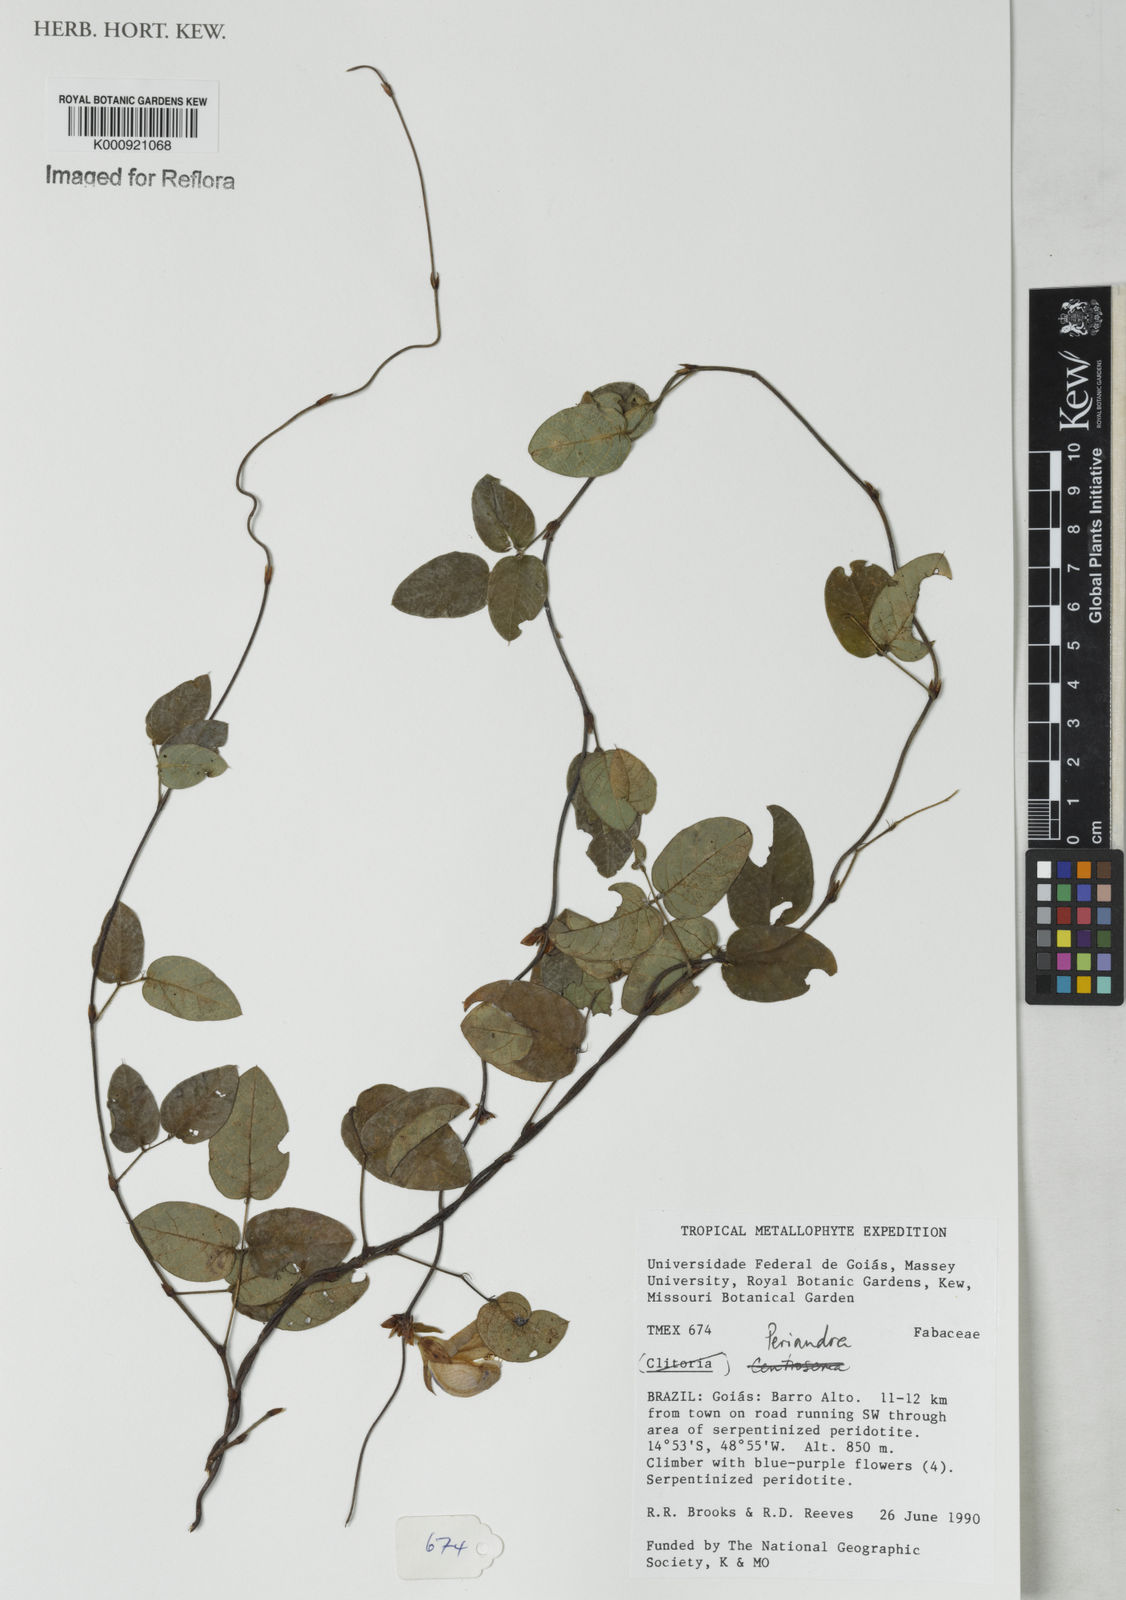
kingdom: Plantae
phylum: Tracheophyta
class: Magnoliopsida
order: Fabales
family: Fabaceae
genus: Periandra
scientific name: Periandra
